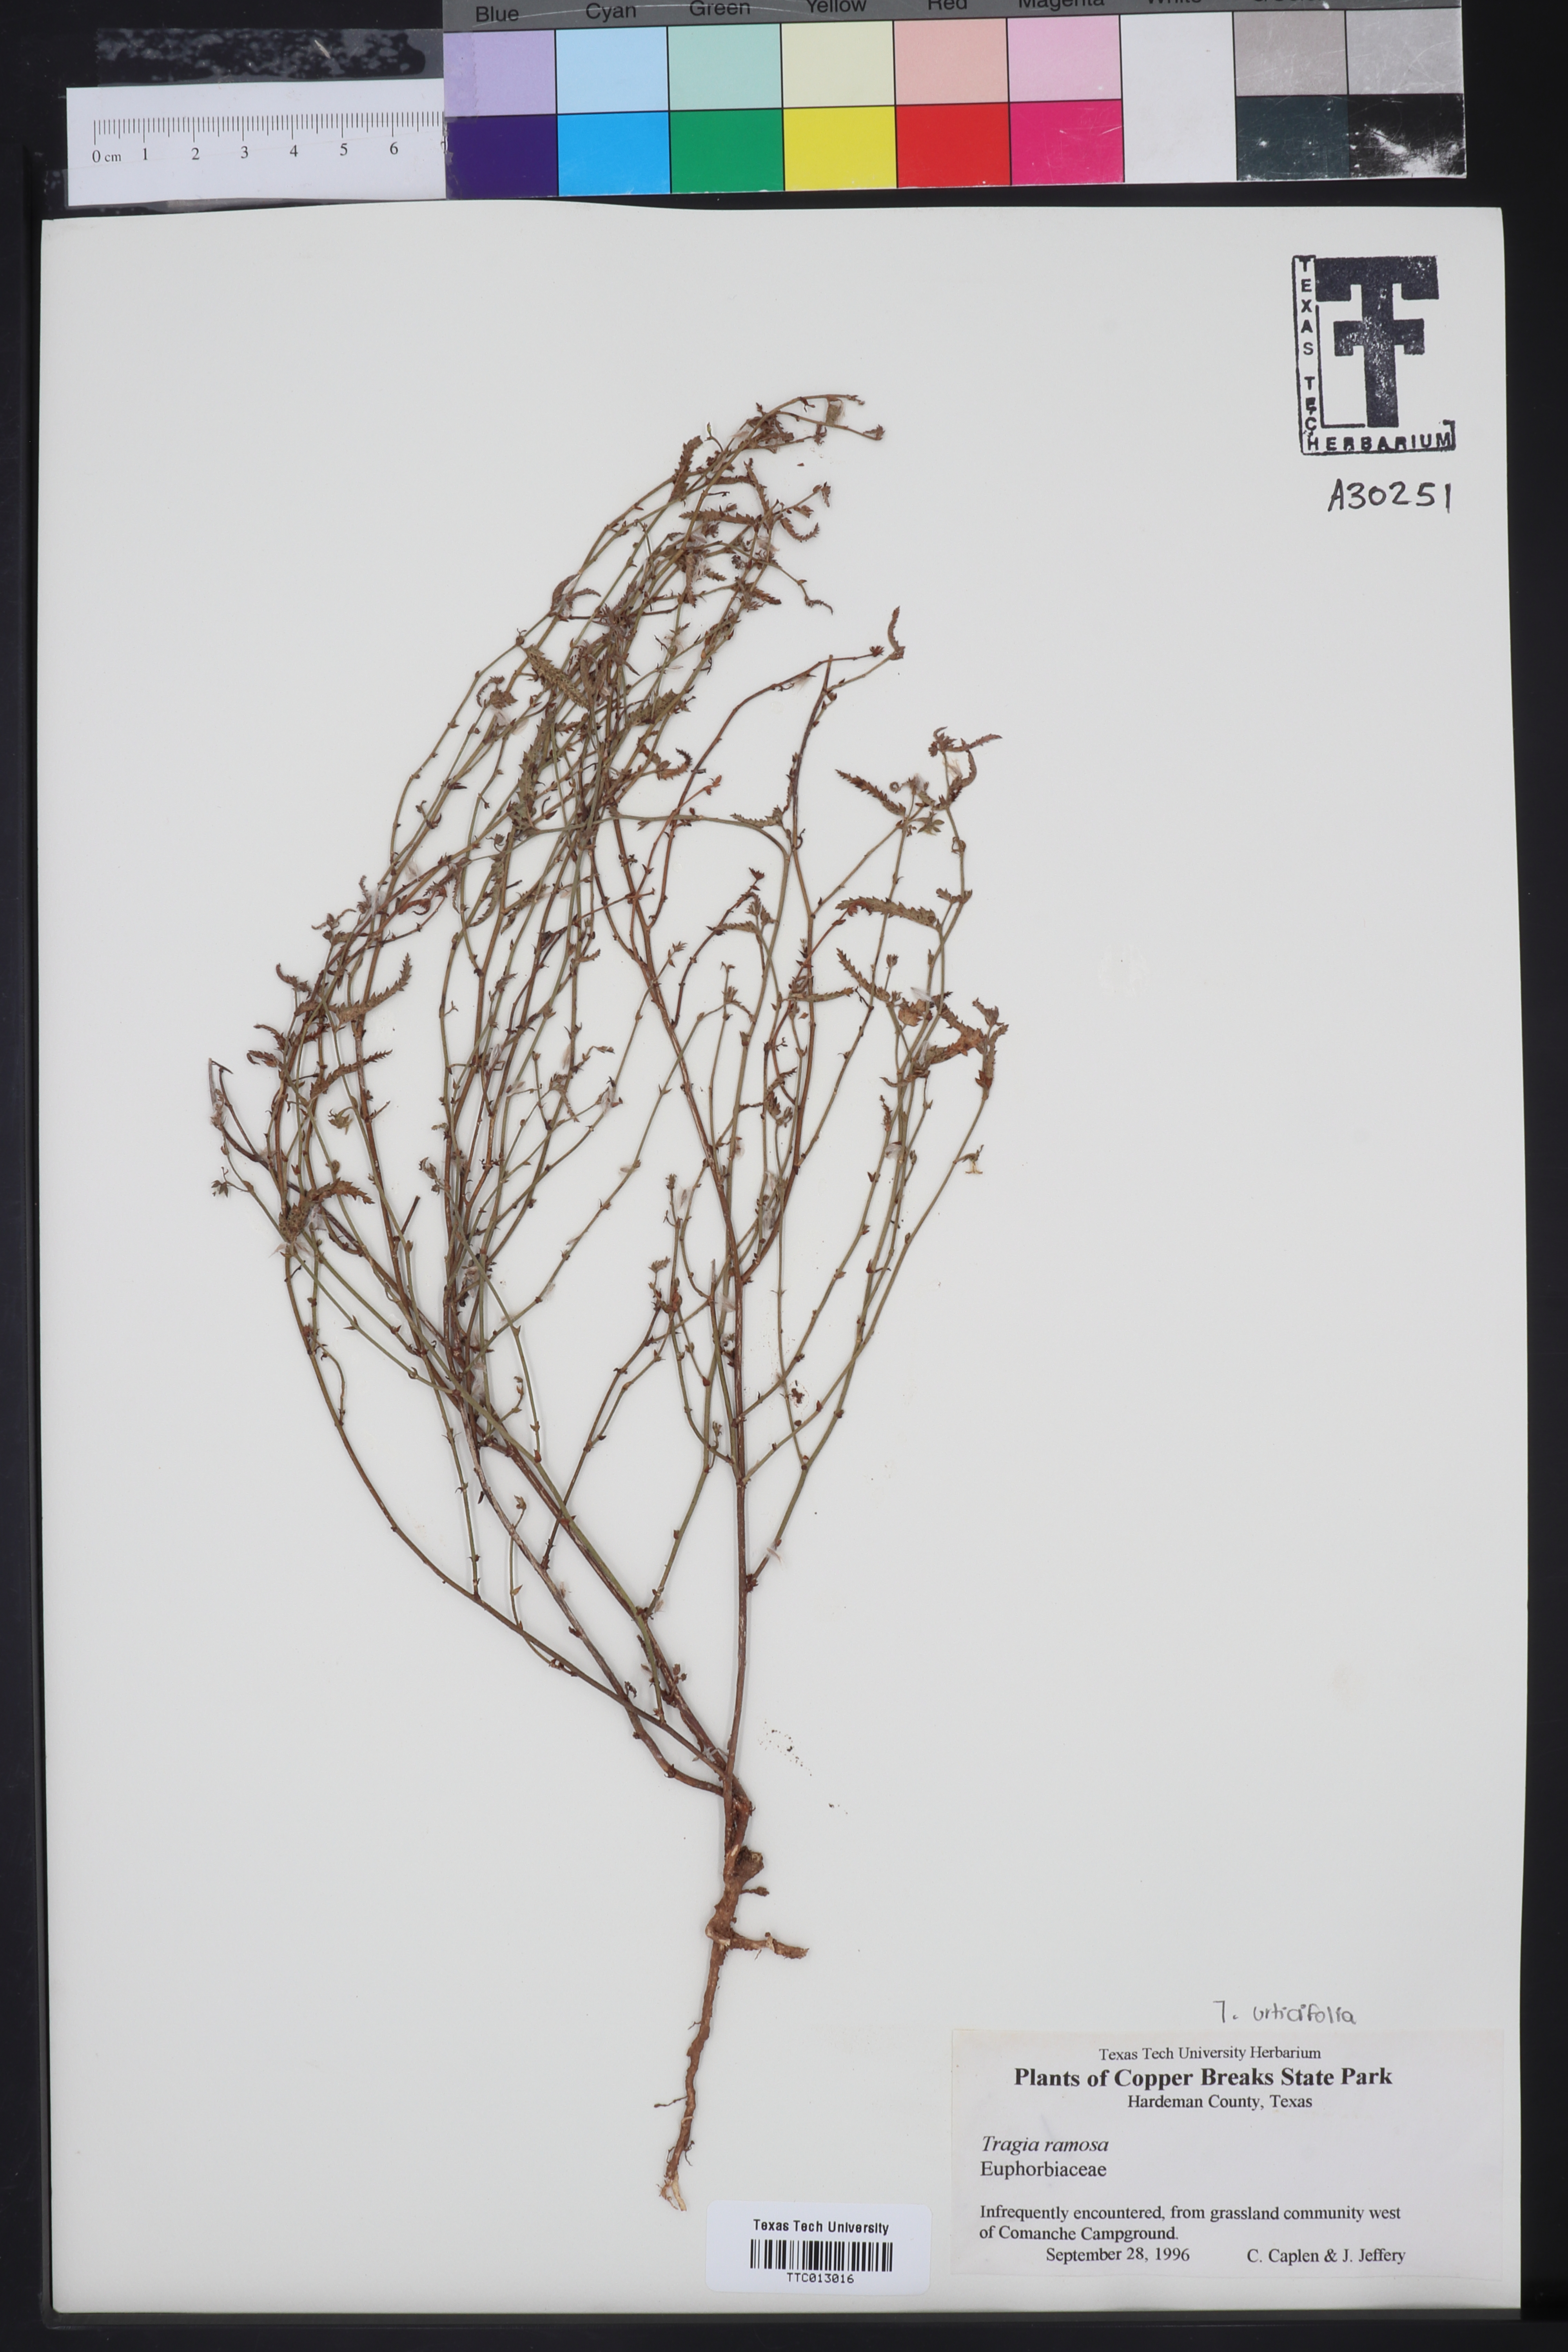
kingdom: Plantae
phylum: Tracheophyta
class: Magnoliopsida
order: Malpighiales
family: Euphorbiaceae
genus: Tragia
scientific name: Tragia ramosa
